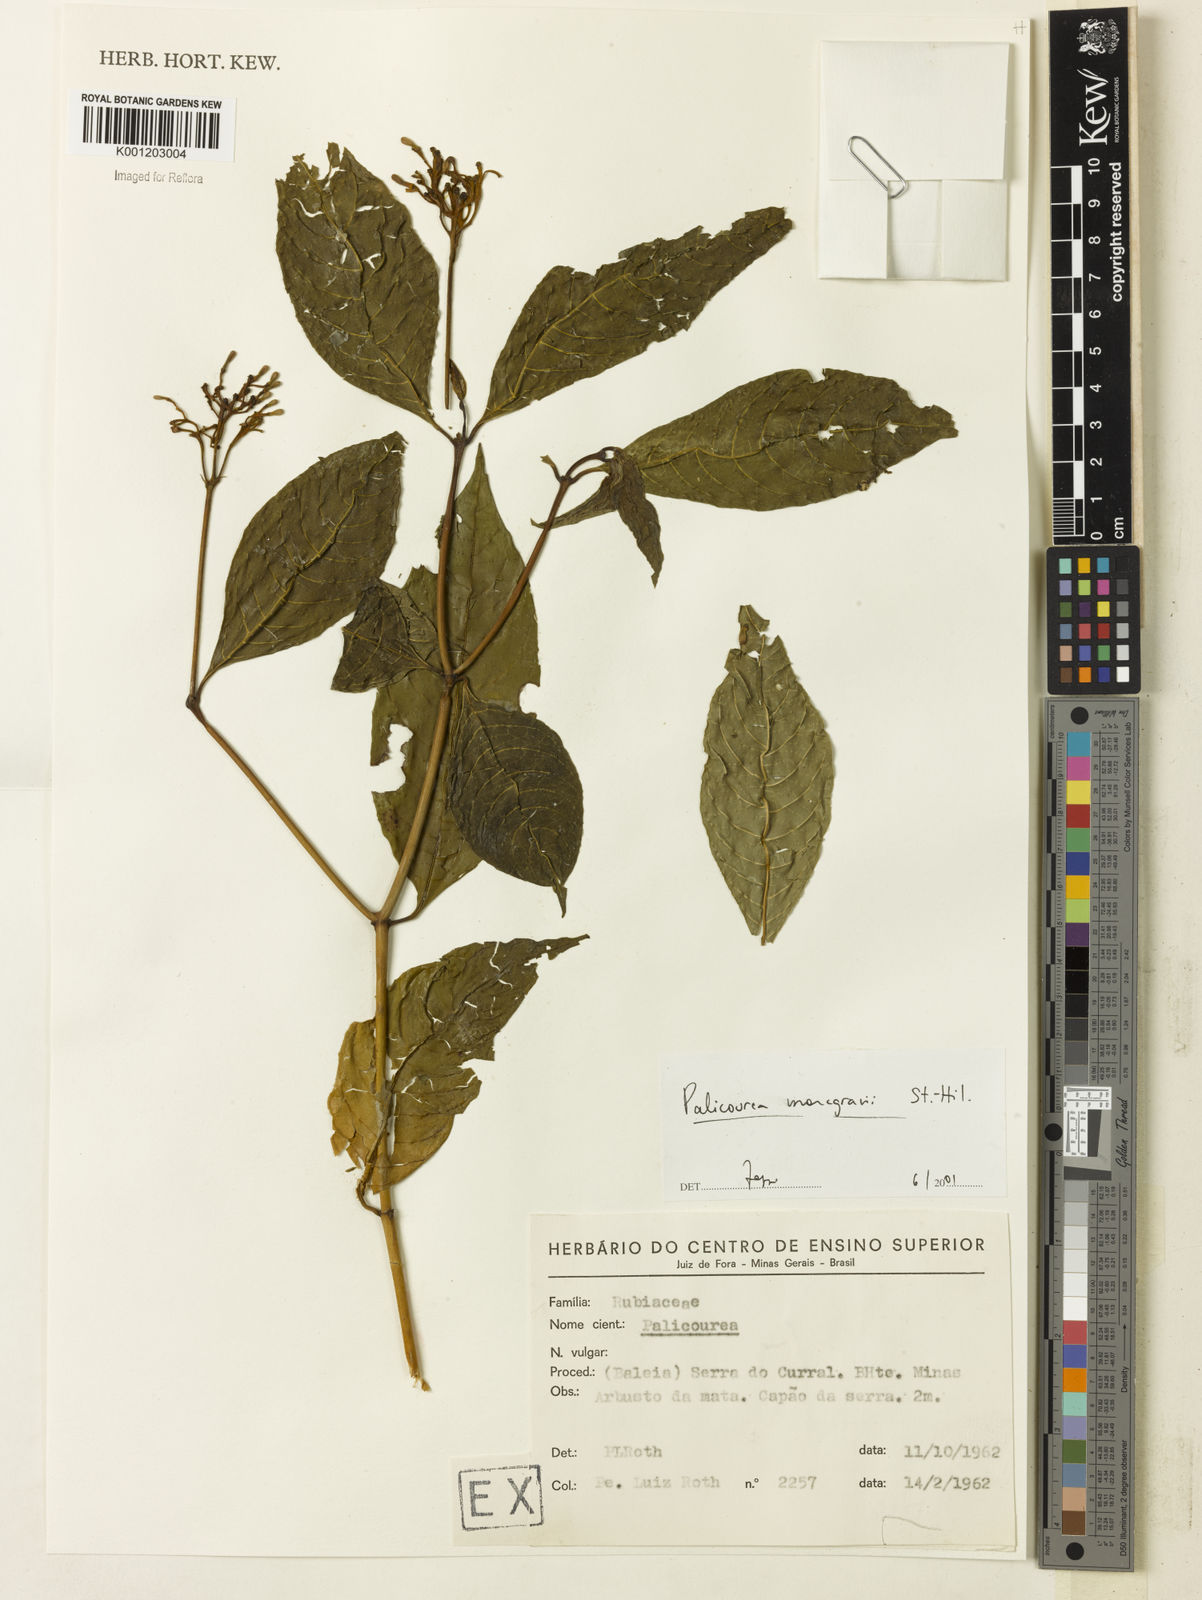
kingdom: Plantae
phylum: Tracheophyta
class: Magnoliopsida
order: Gentianales
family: Rubiaceae
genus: Palicourea
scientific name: Palicourea marcgravii
